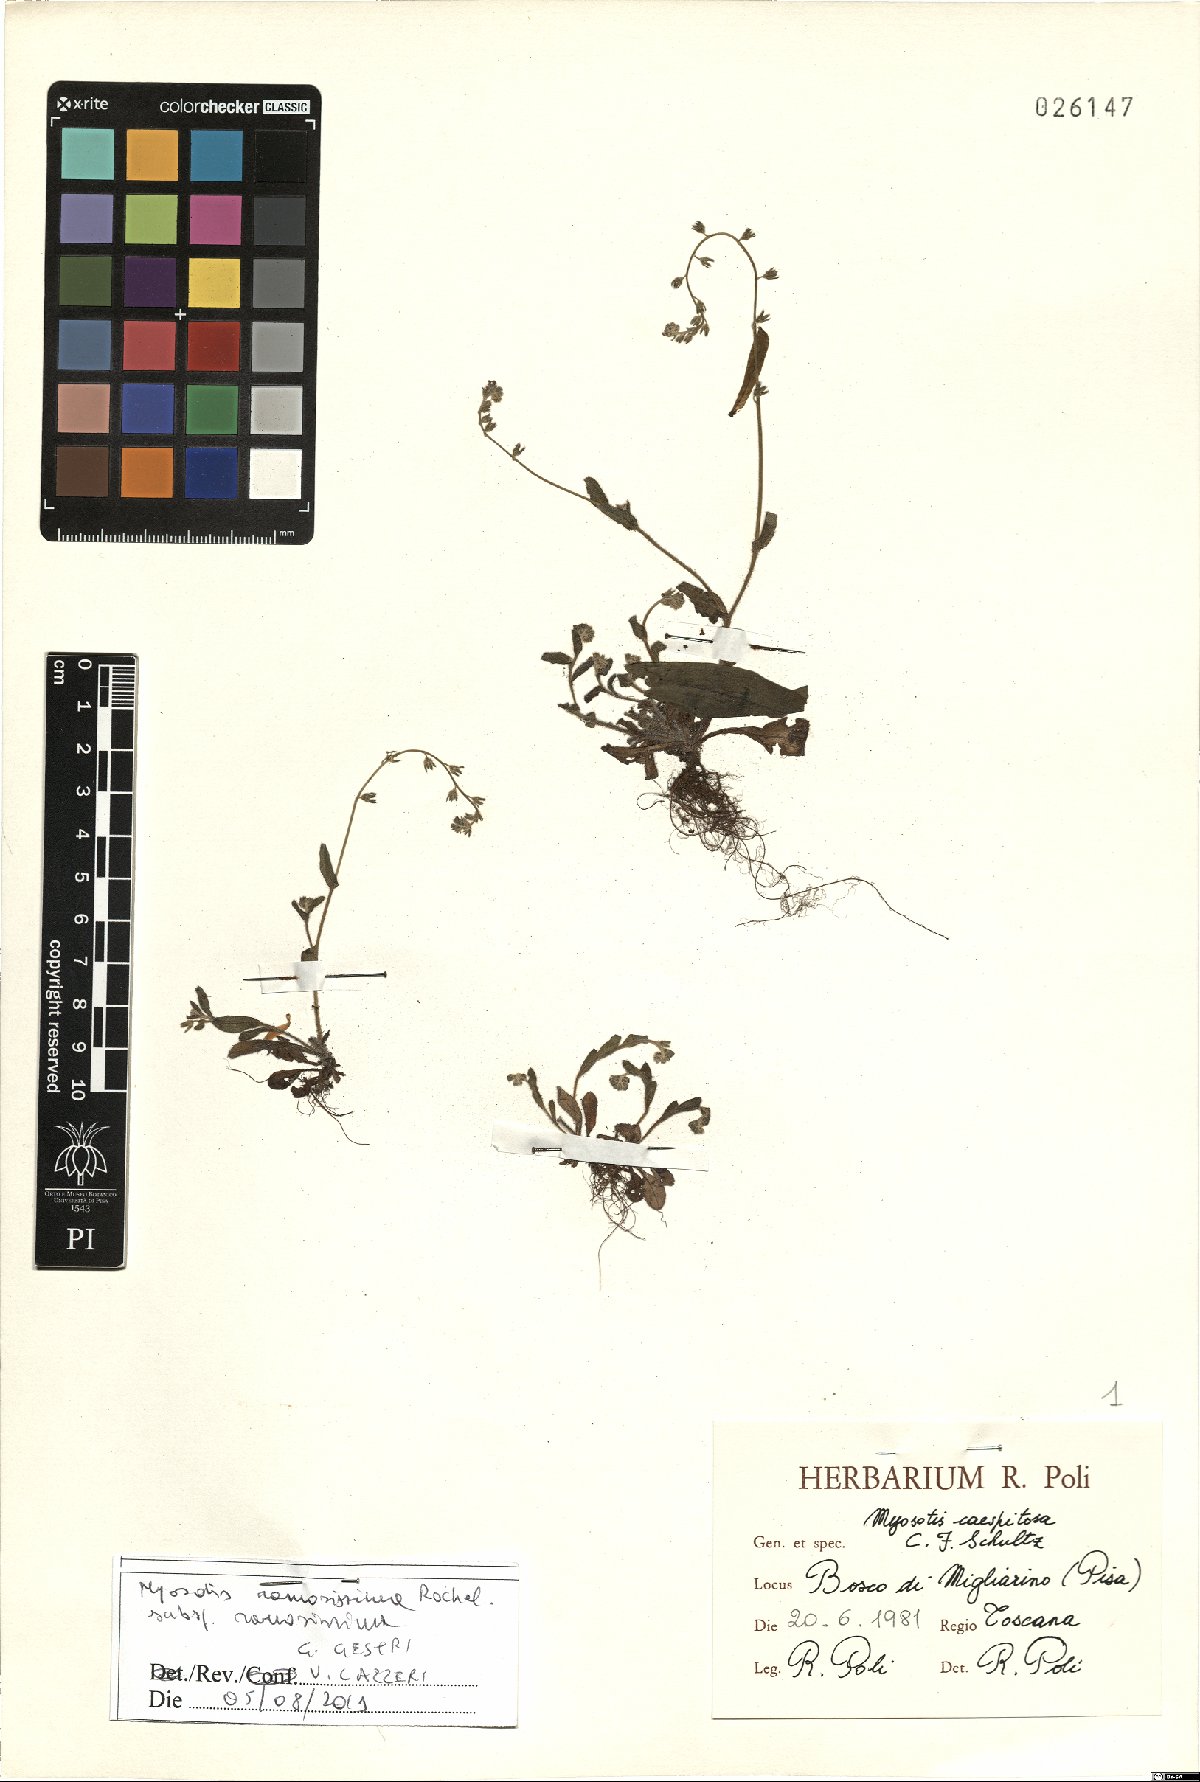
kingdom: Plantae
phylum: Tracheophyta
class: Magnoliopsida
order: Boraginales
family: Boraginaceae
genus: Myosotis
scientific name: Myosotis ramosissima
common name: Early forget-me-not
